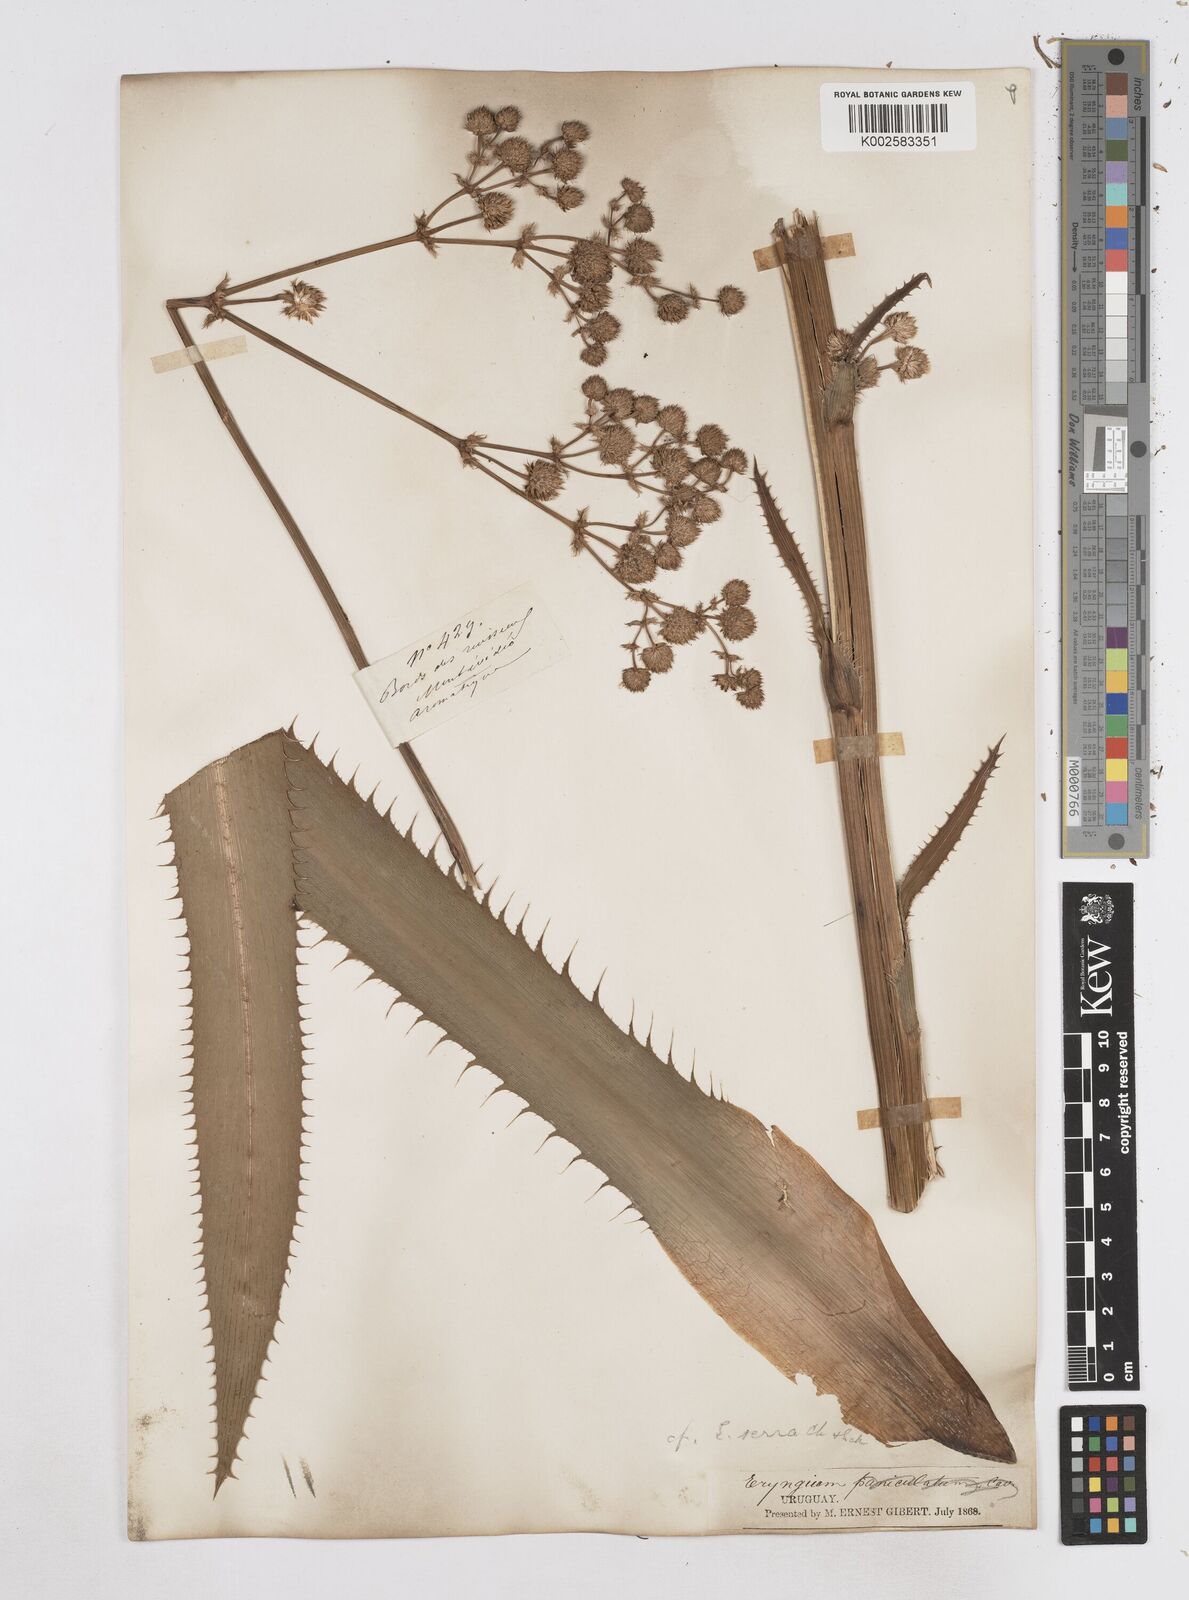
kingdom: Plantae
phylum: Tracheophyta
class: Magnoliopsida
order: Apiales
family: Apiaceae
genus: Eryngium
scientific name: Eryngium serra
